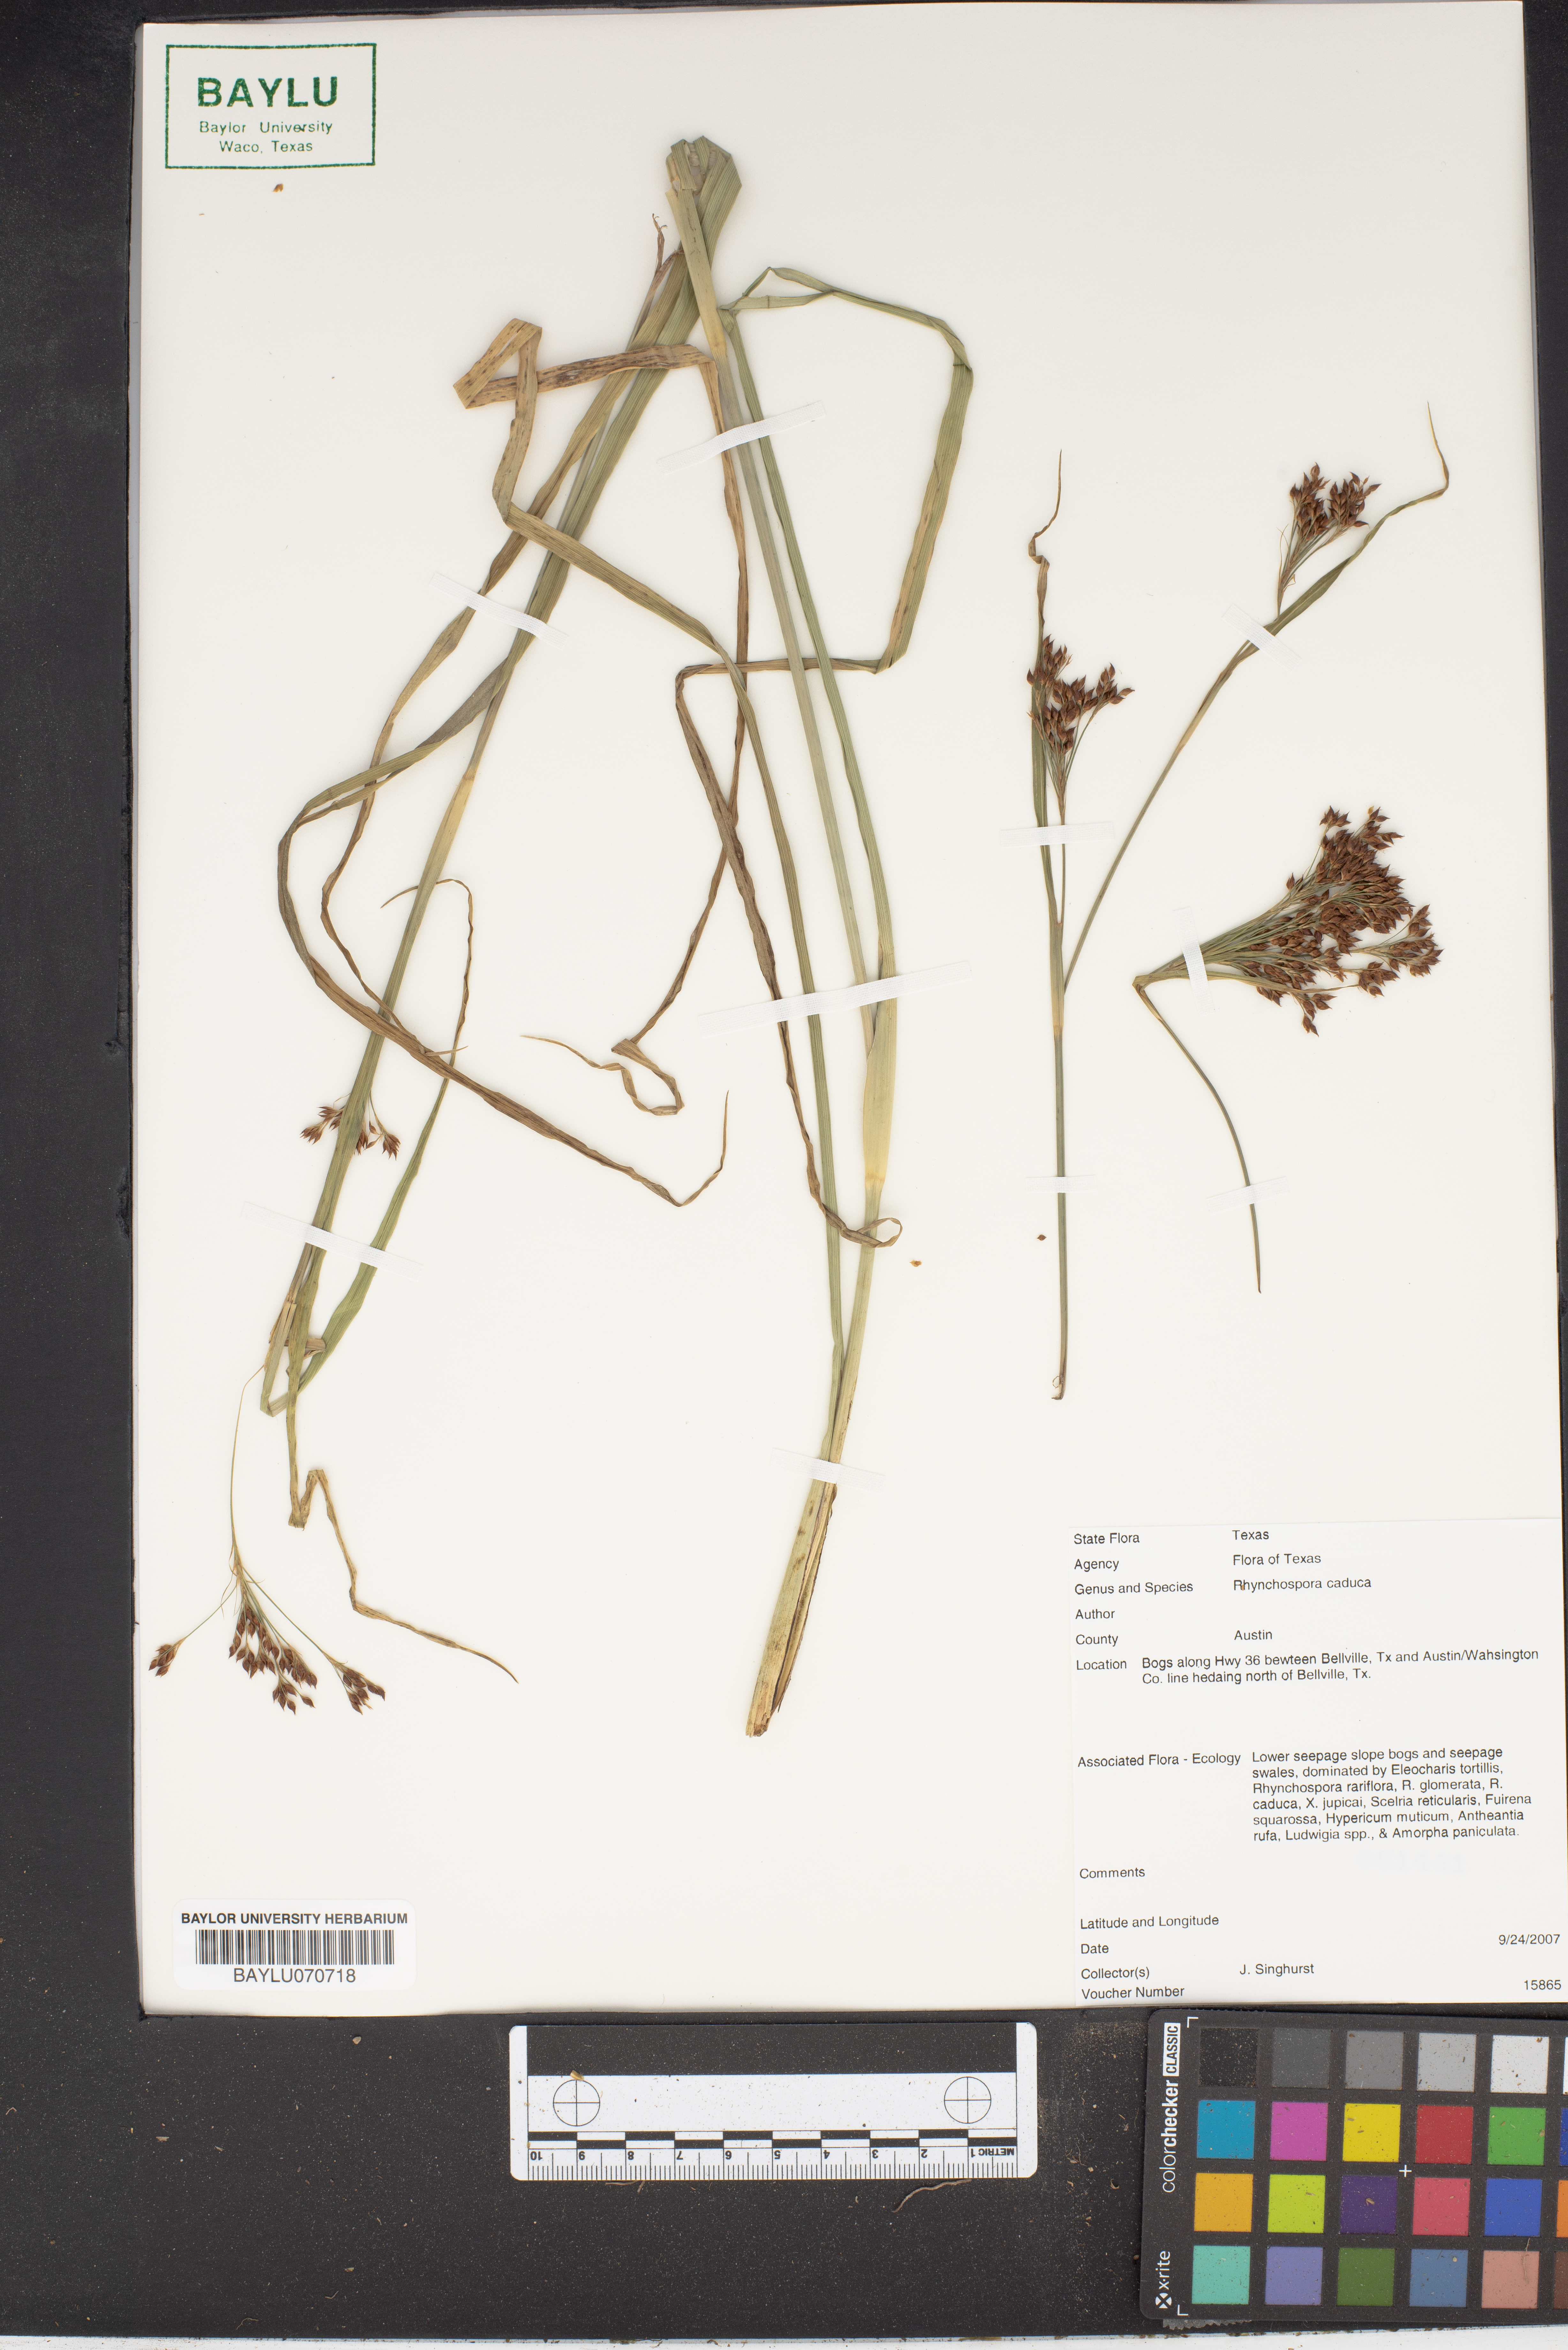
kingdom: Plantae
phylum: Tracheophyta
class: Liliopsida
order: Poales
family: Cyperaceae
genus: Rhynchospora
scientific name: Rhynchospora caduca
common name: Anglestem beaksedge
